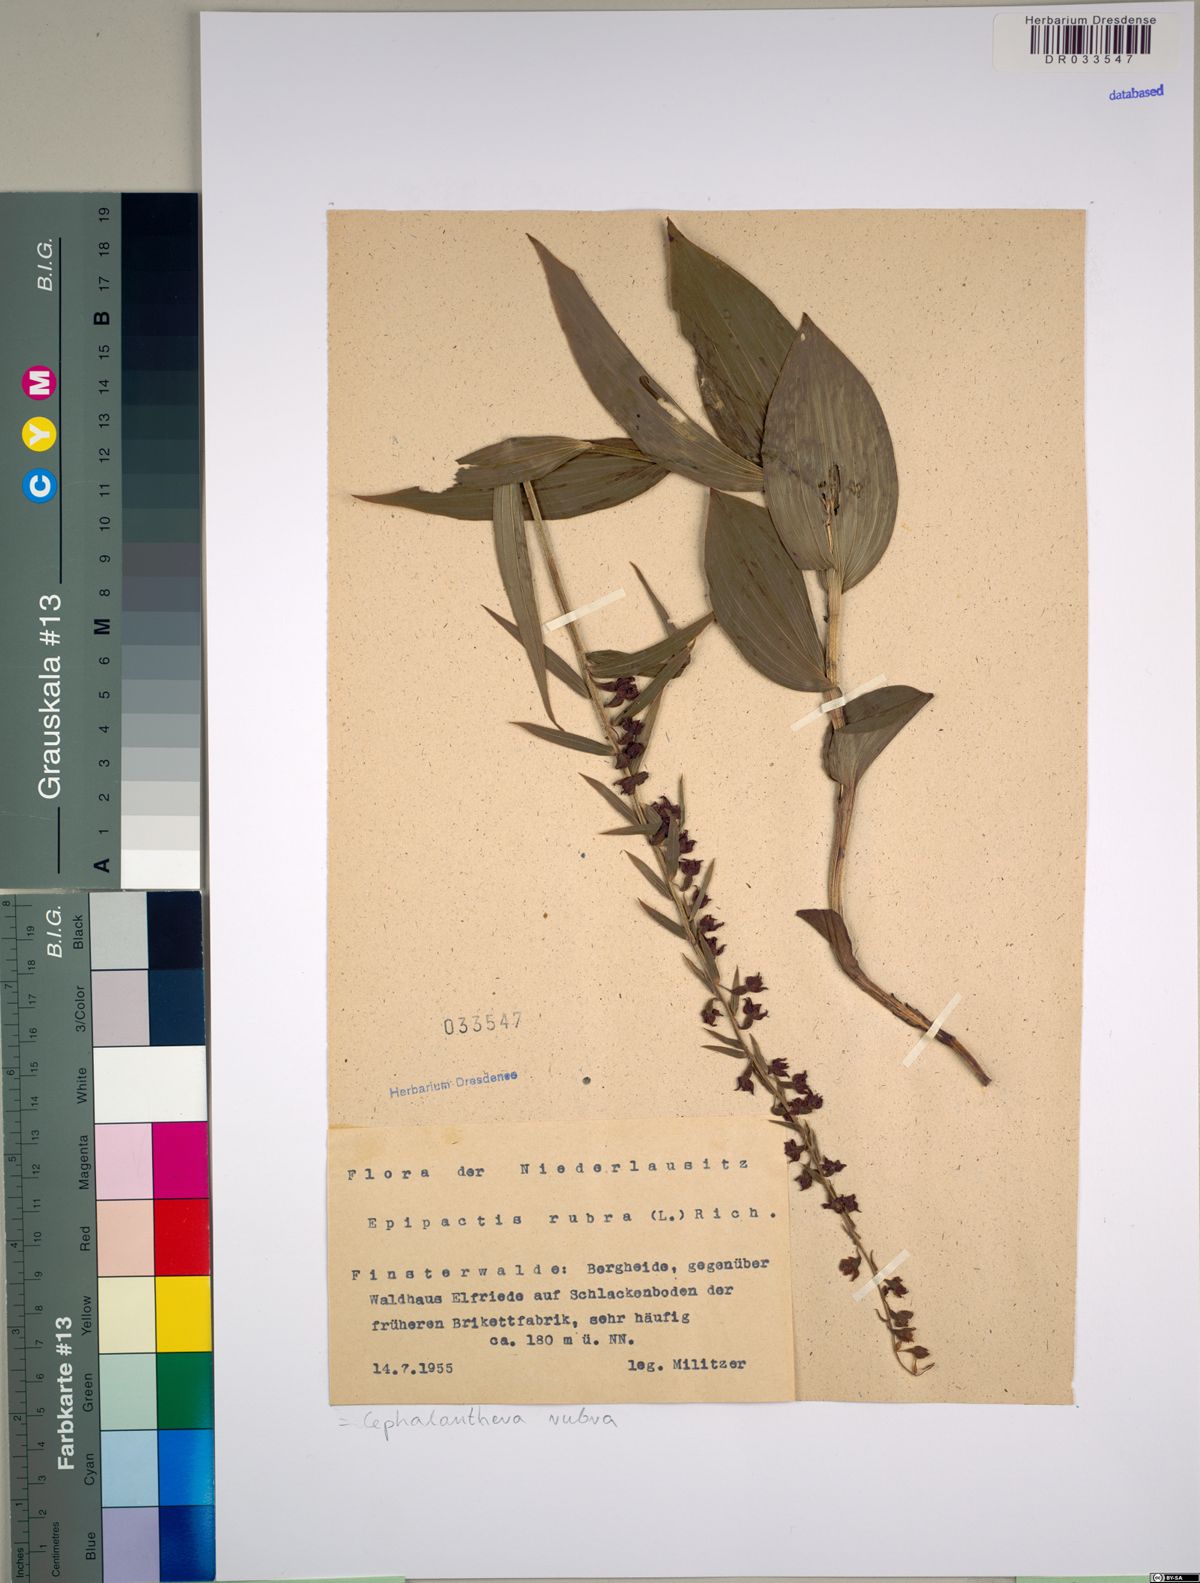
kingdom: Plantae
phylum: Tracheophyta
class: Liliopsida
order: Asparagales
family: Orchidaceae
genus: Cephalanthera
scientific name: Cephalanthera rubra
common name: Red helleborine
